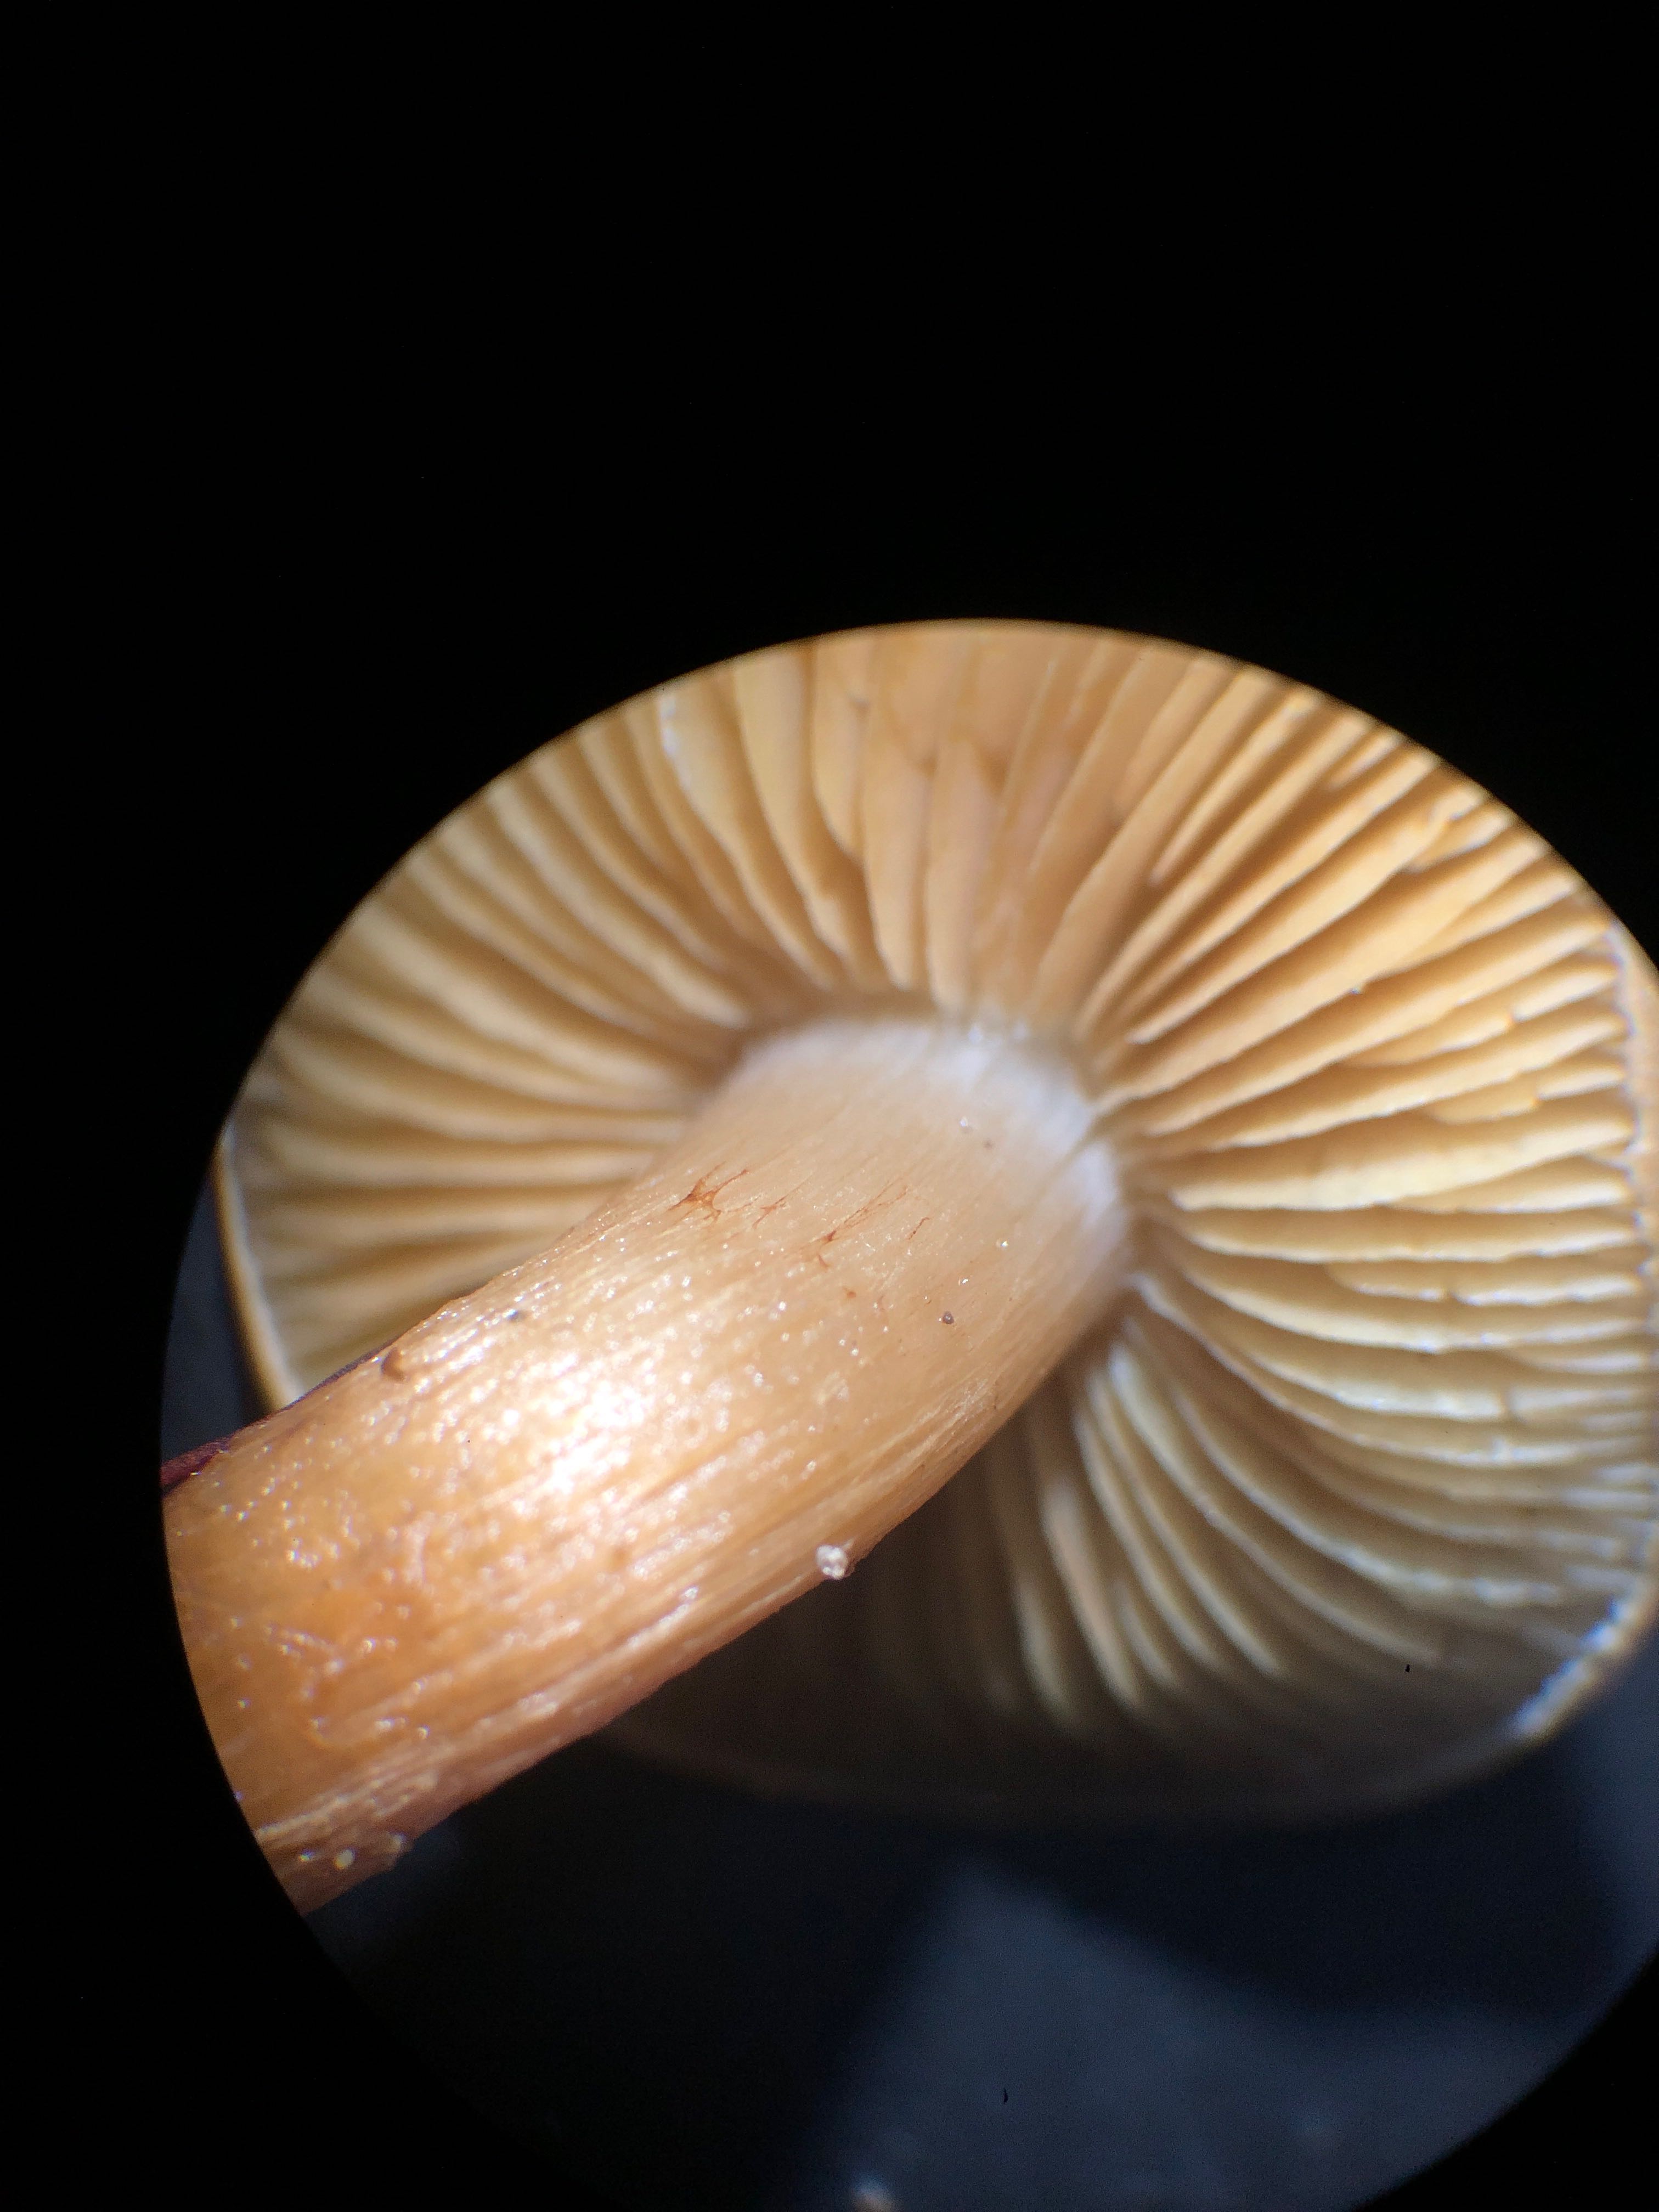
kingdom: Fungi
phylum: Basidiomycota
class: Agaricomycetes
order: Agaricales
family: Strophariaceae
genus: Pholiota
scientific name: Pholiota gummosa
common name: grøngul skælhat
